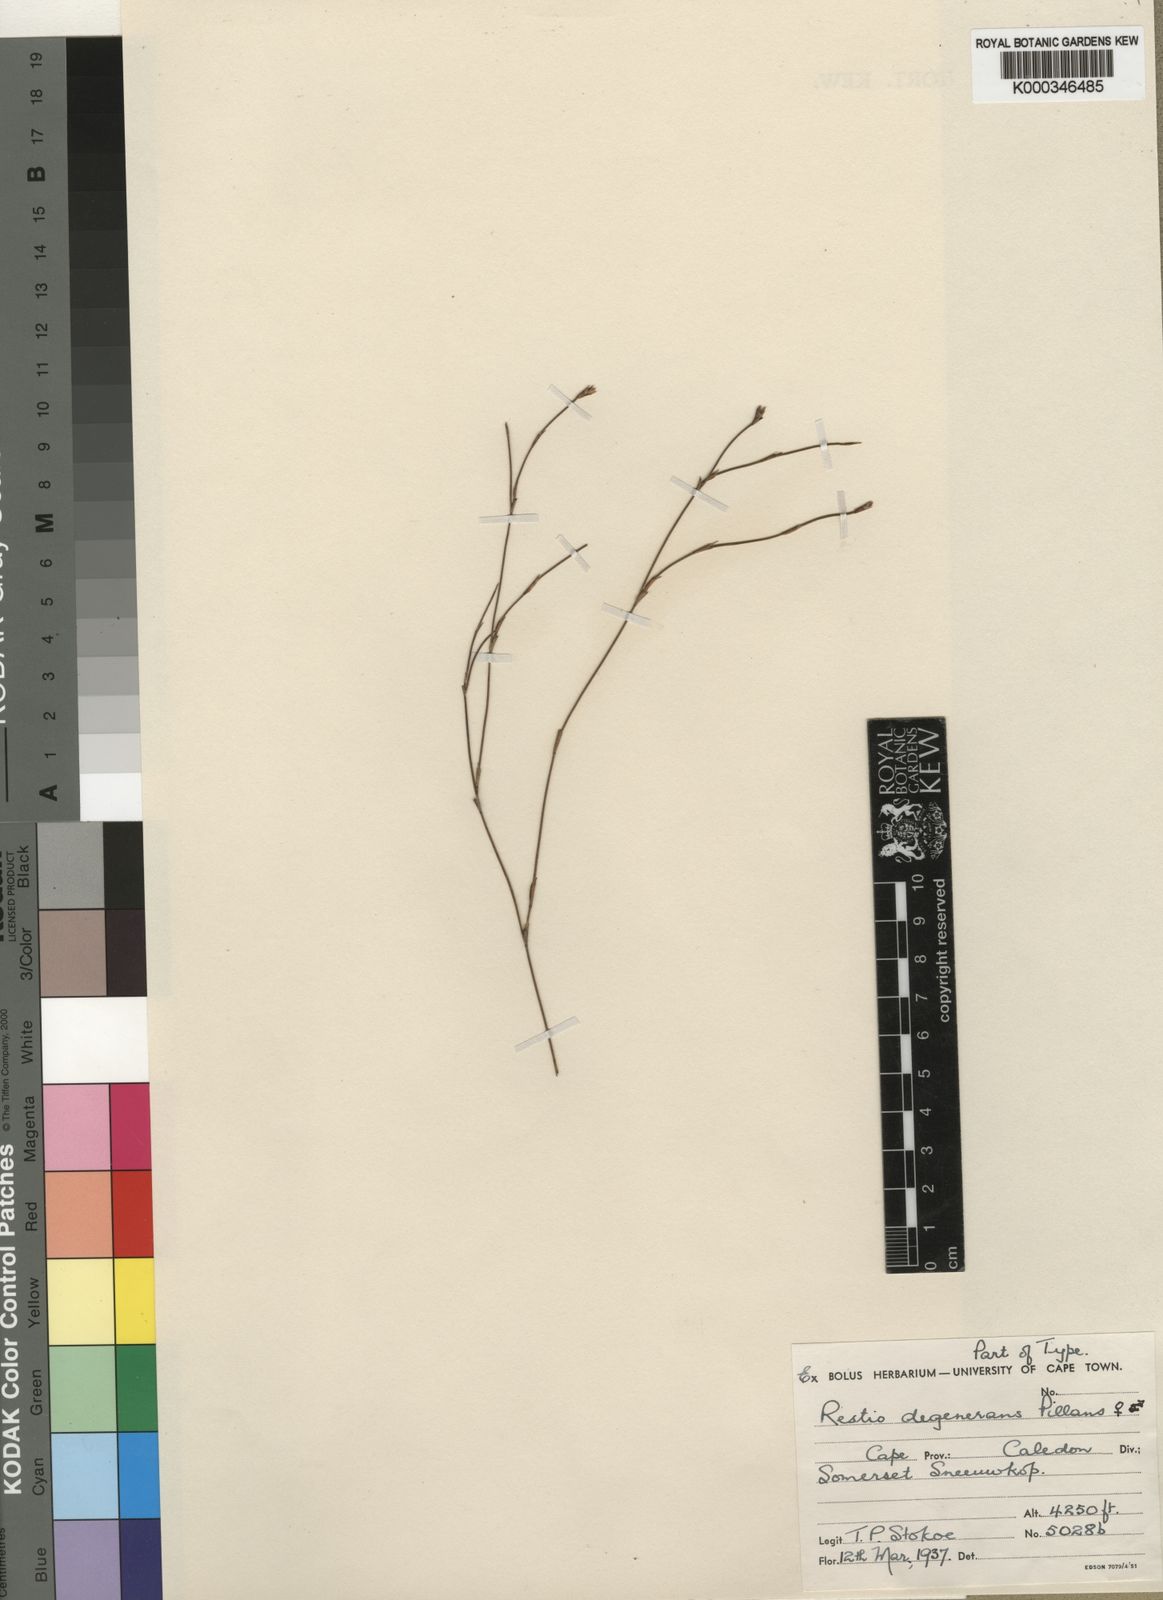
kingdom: Plantae
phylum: Tracheophyta
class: Liliopsida
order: Poales
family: Restionaceae
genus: Restio
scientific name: Restio degenerans
